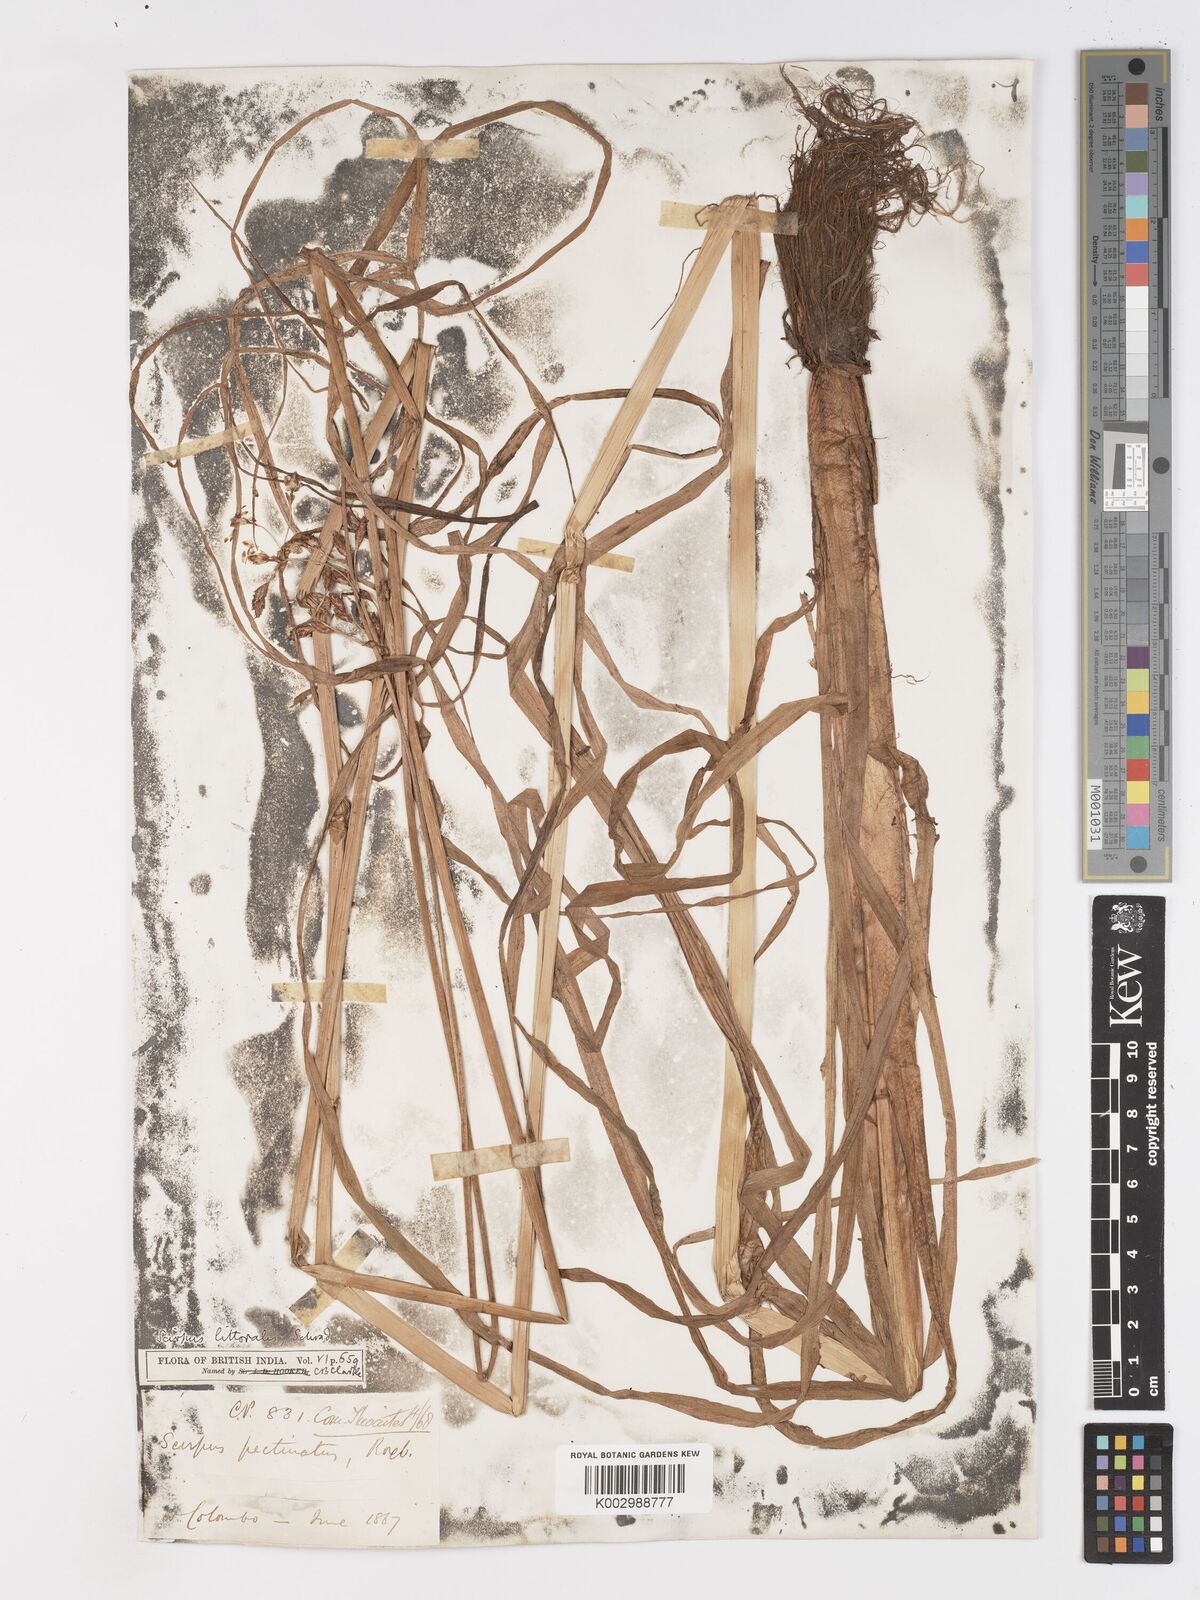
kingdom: Plantae
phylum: Tracheophyta
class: Liliopsida
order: Poales
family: Cyperaceae
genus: Schoenoplectus
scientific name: Schoenoplectus litoralis
